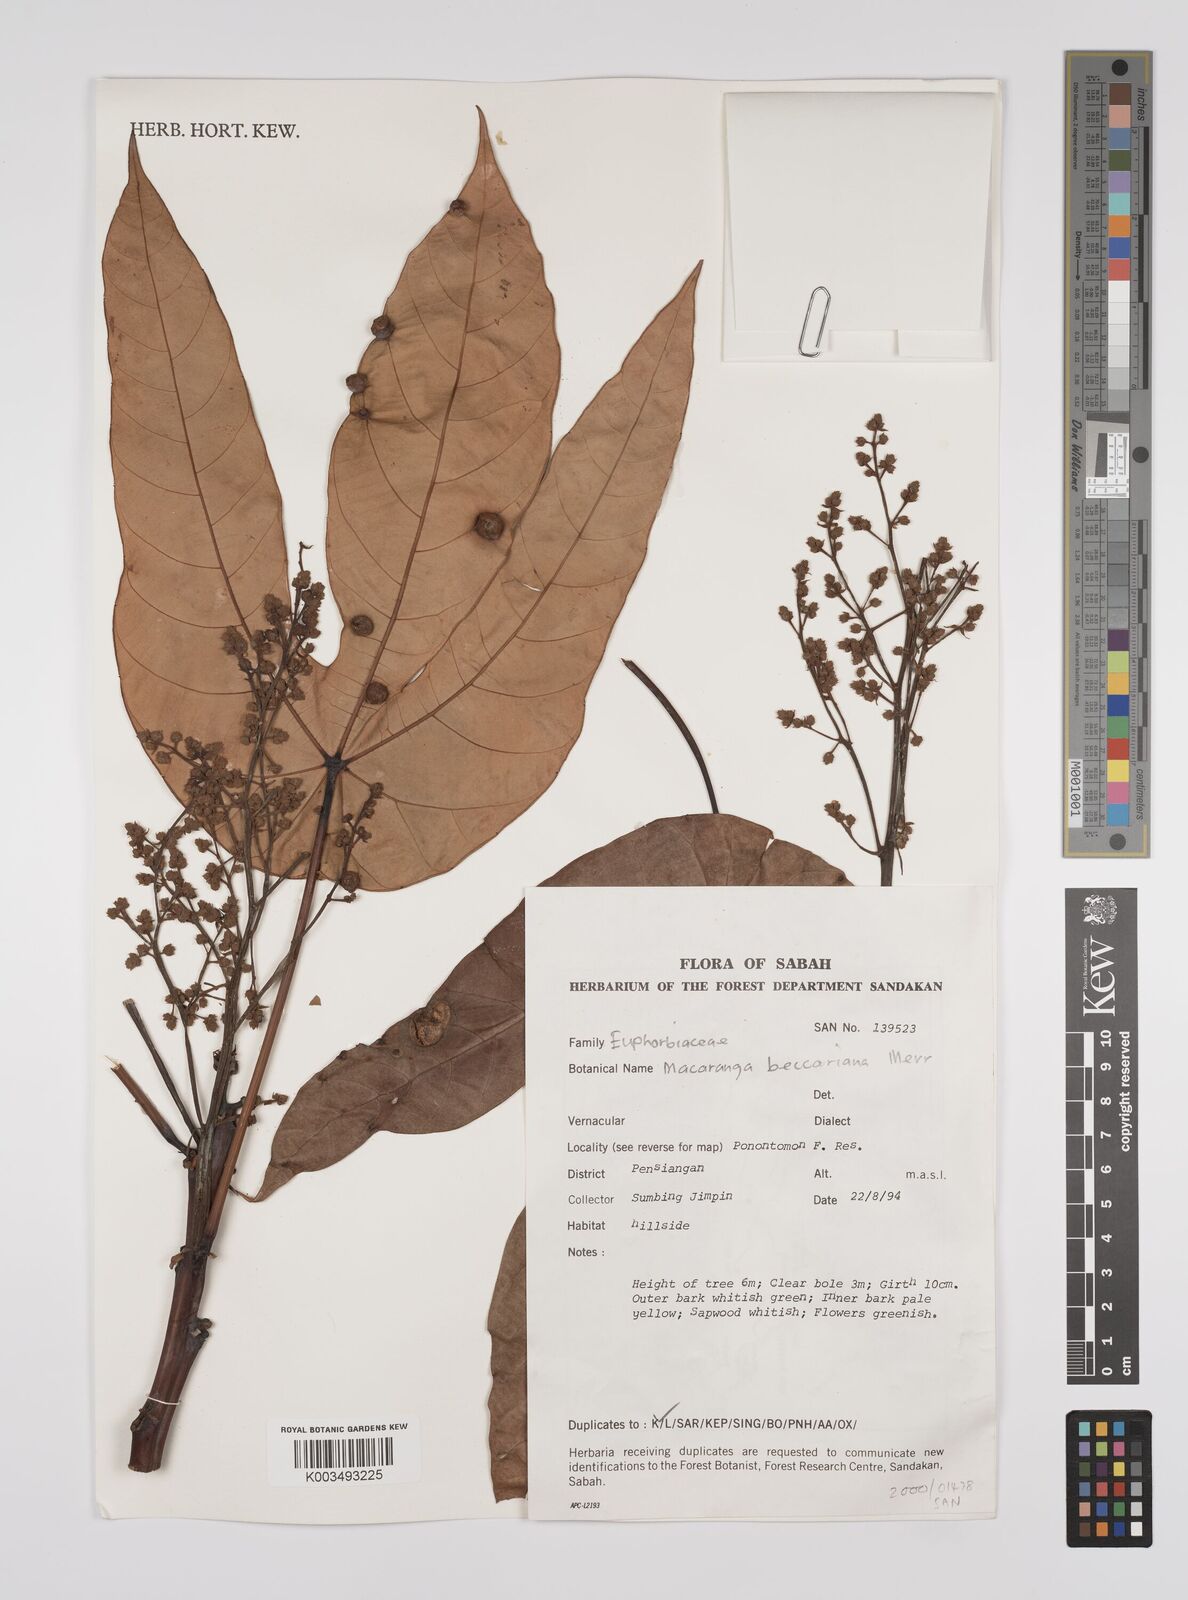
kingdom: Plantae
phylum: Tracheophyta
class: Magnoliopsida
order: Malpighiales
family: Euphorbiaceae
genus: Macaranga
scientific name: Macaranga beccariana
